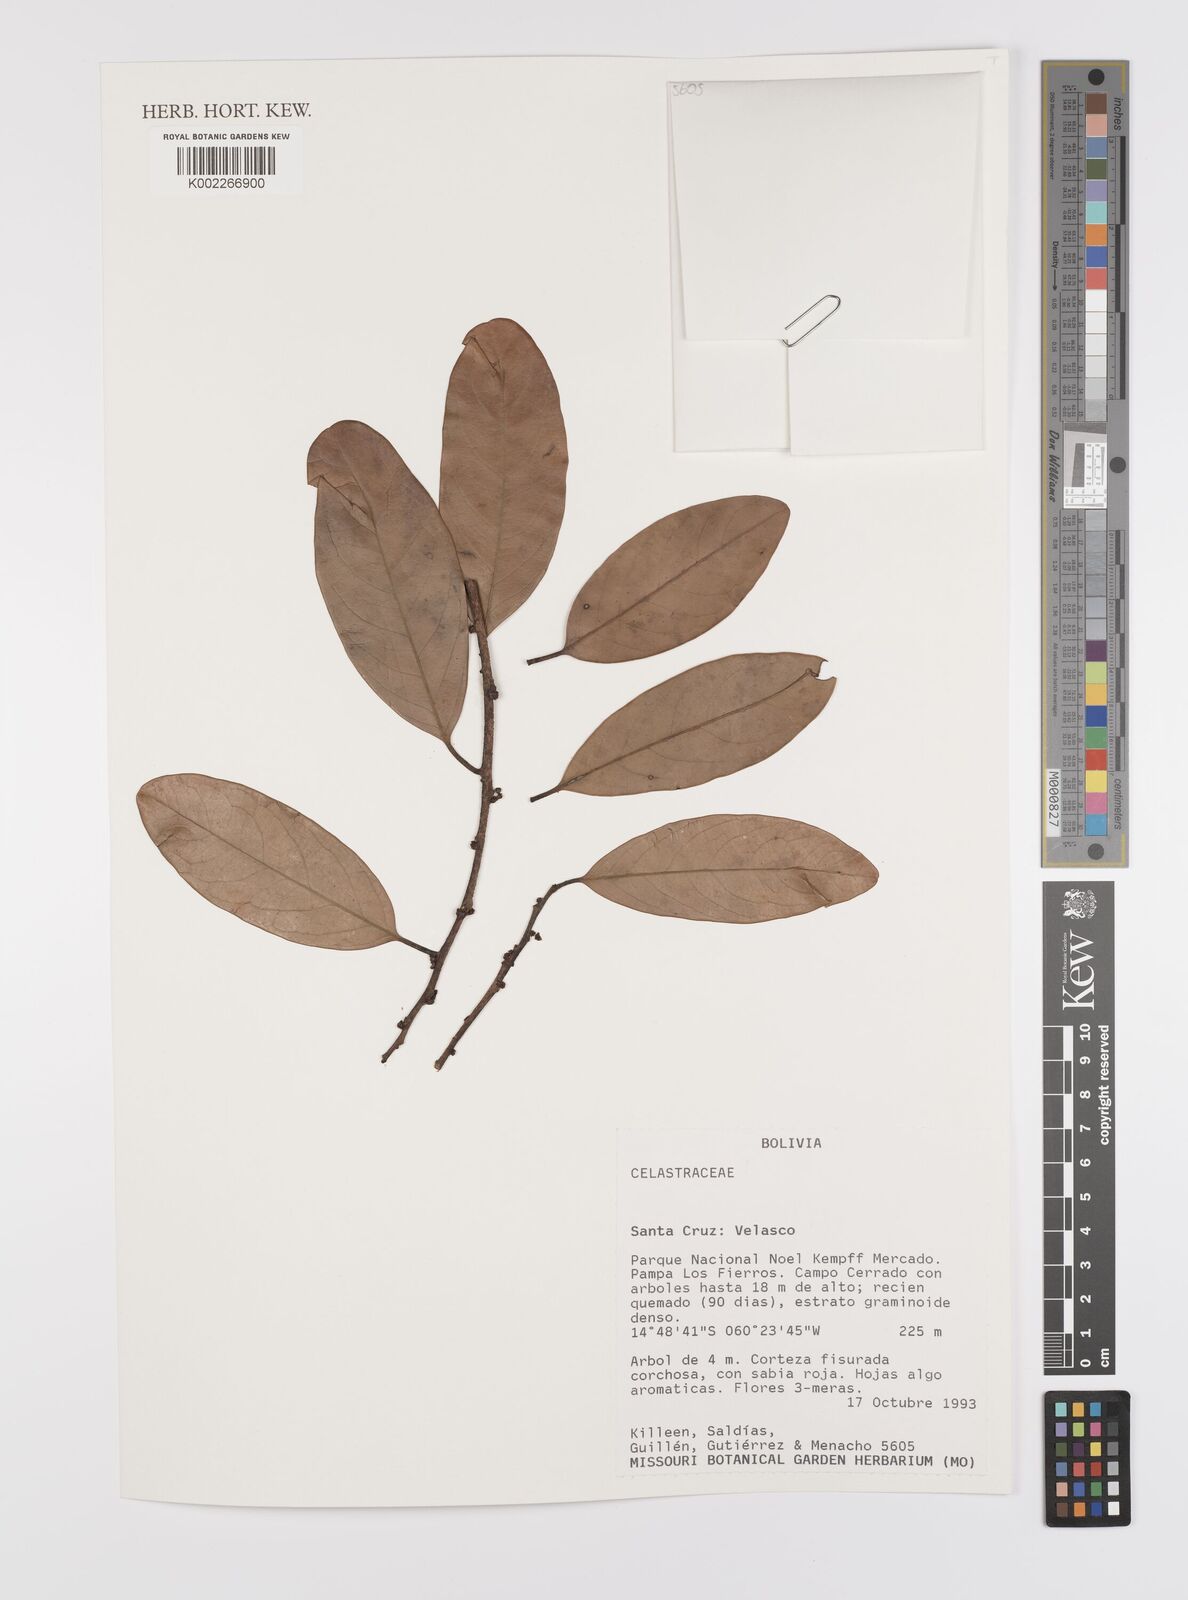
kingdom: Plantae
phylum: Tracheophyta
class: Magnoliopsida
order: Celastrales
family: Celastraceae
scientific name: Celastraceae
